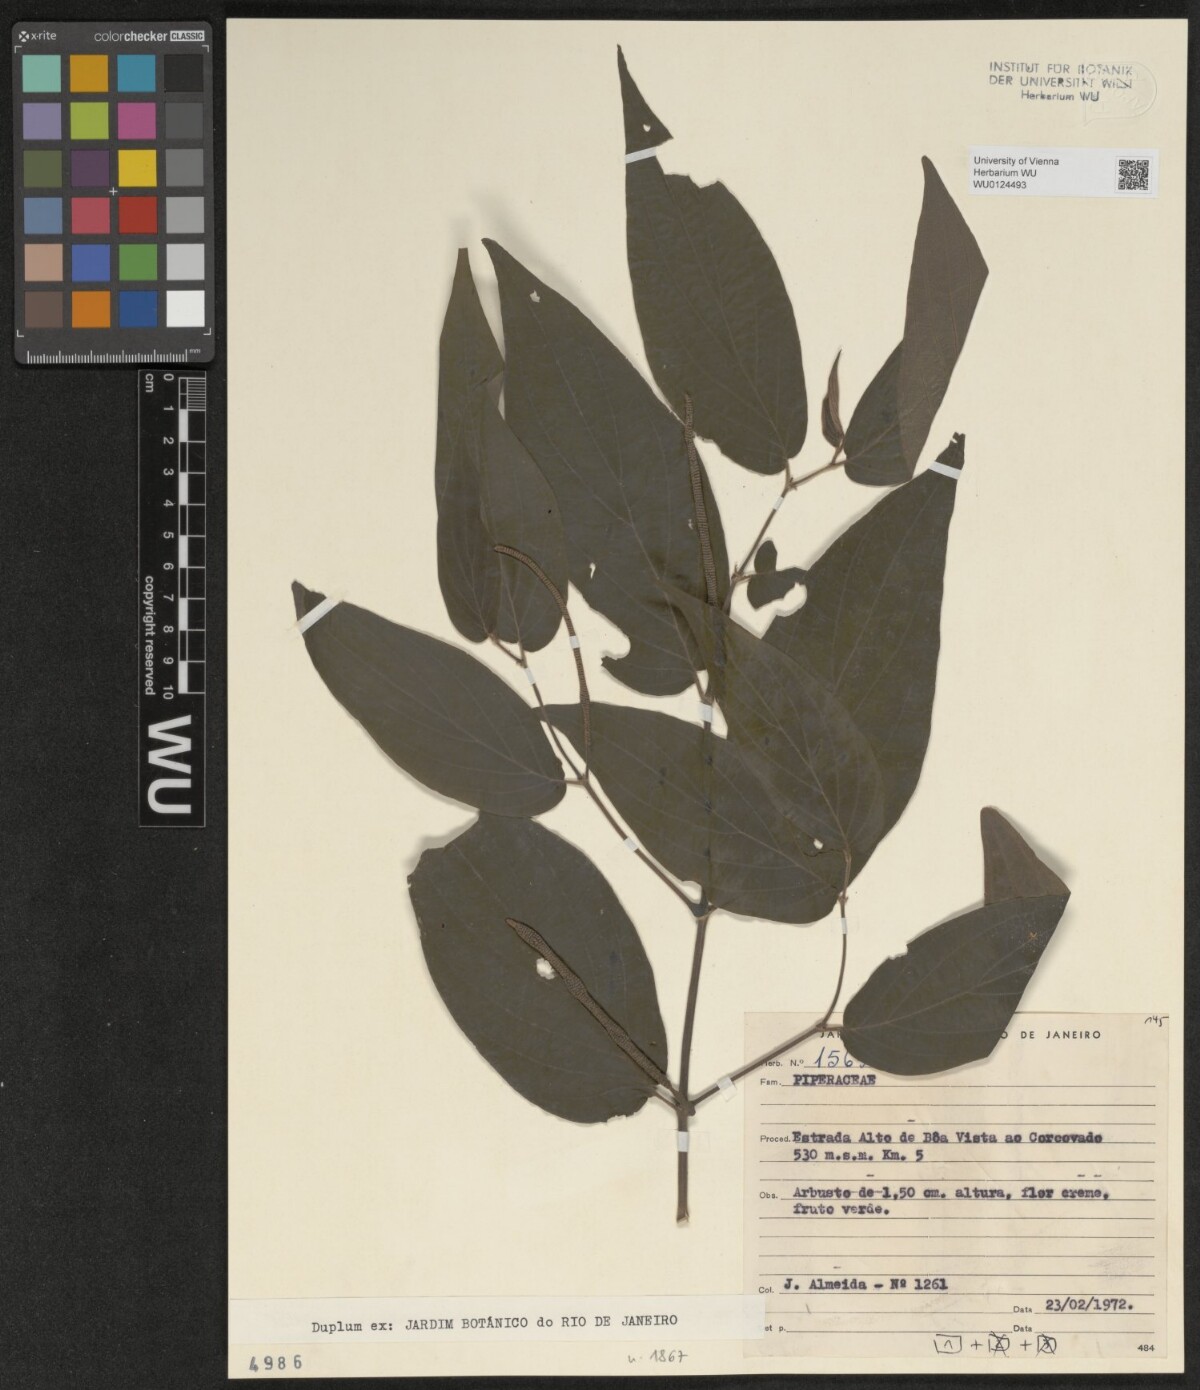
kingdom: Plantae
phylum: Tracheophyta
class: Magnoliopsida
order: Piperales
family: Piperaceae
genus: Peperomia
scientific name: Peperomia
